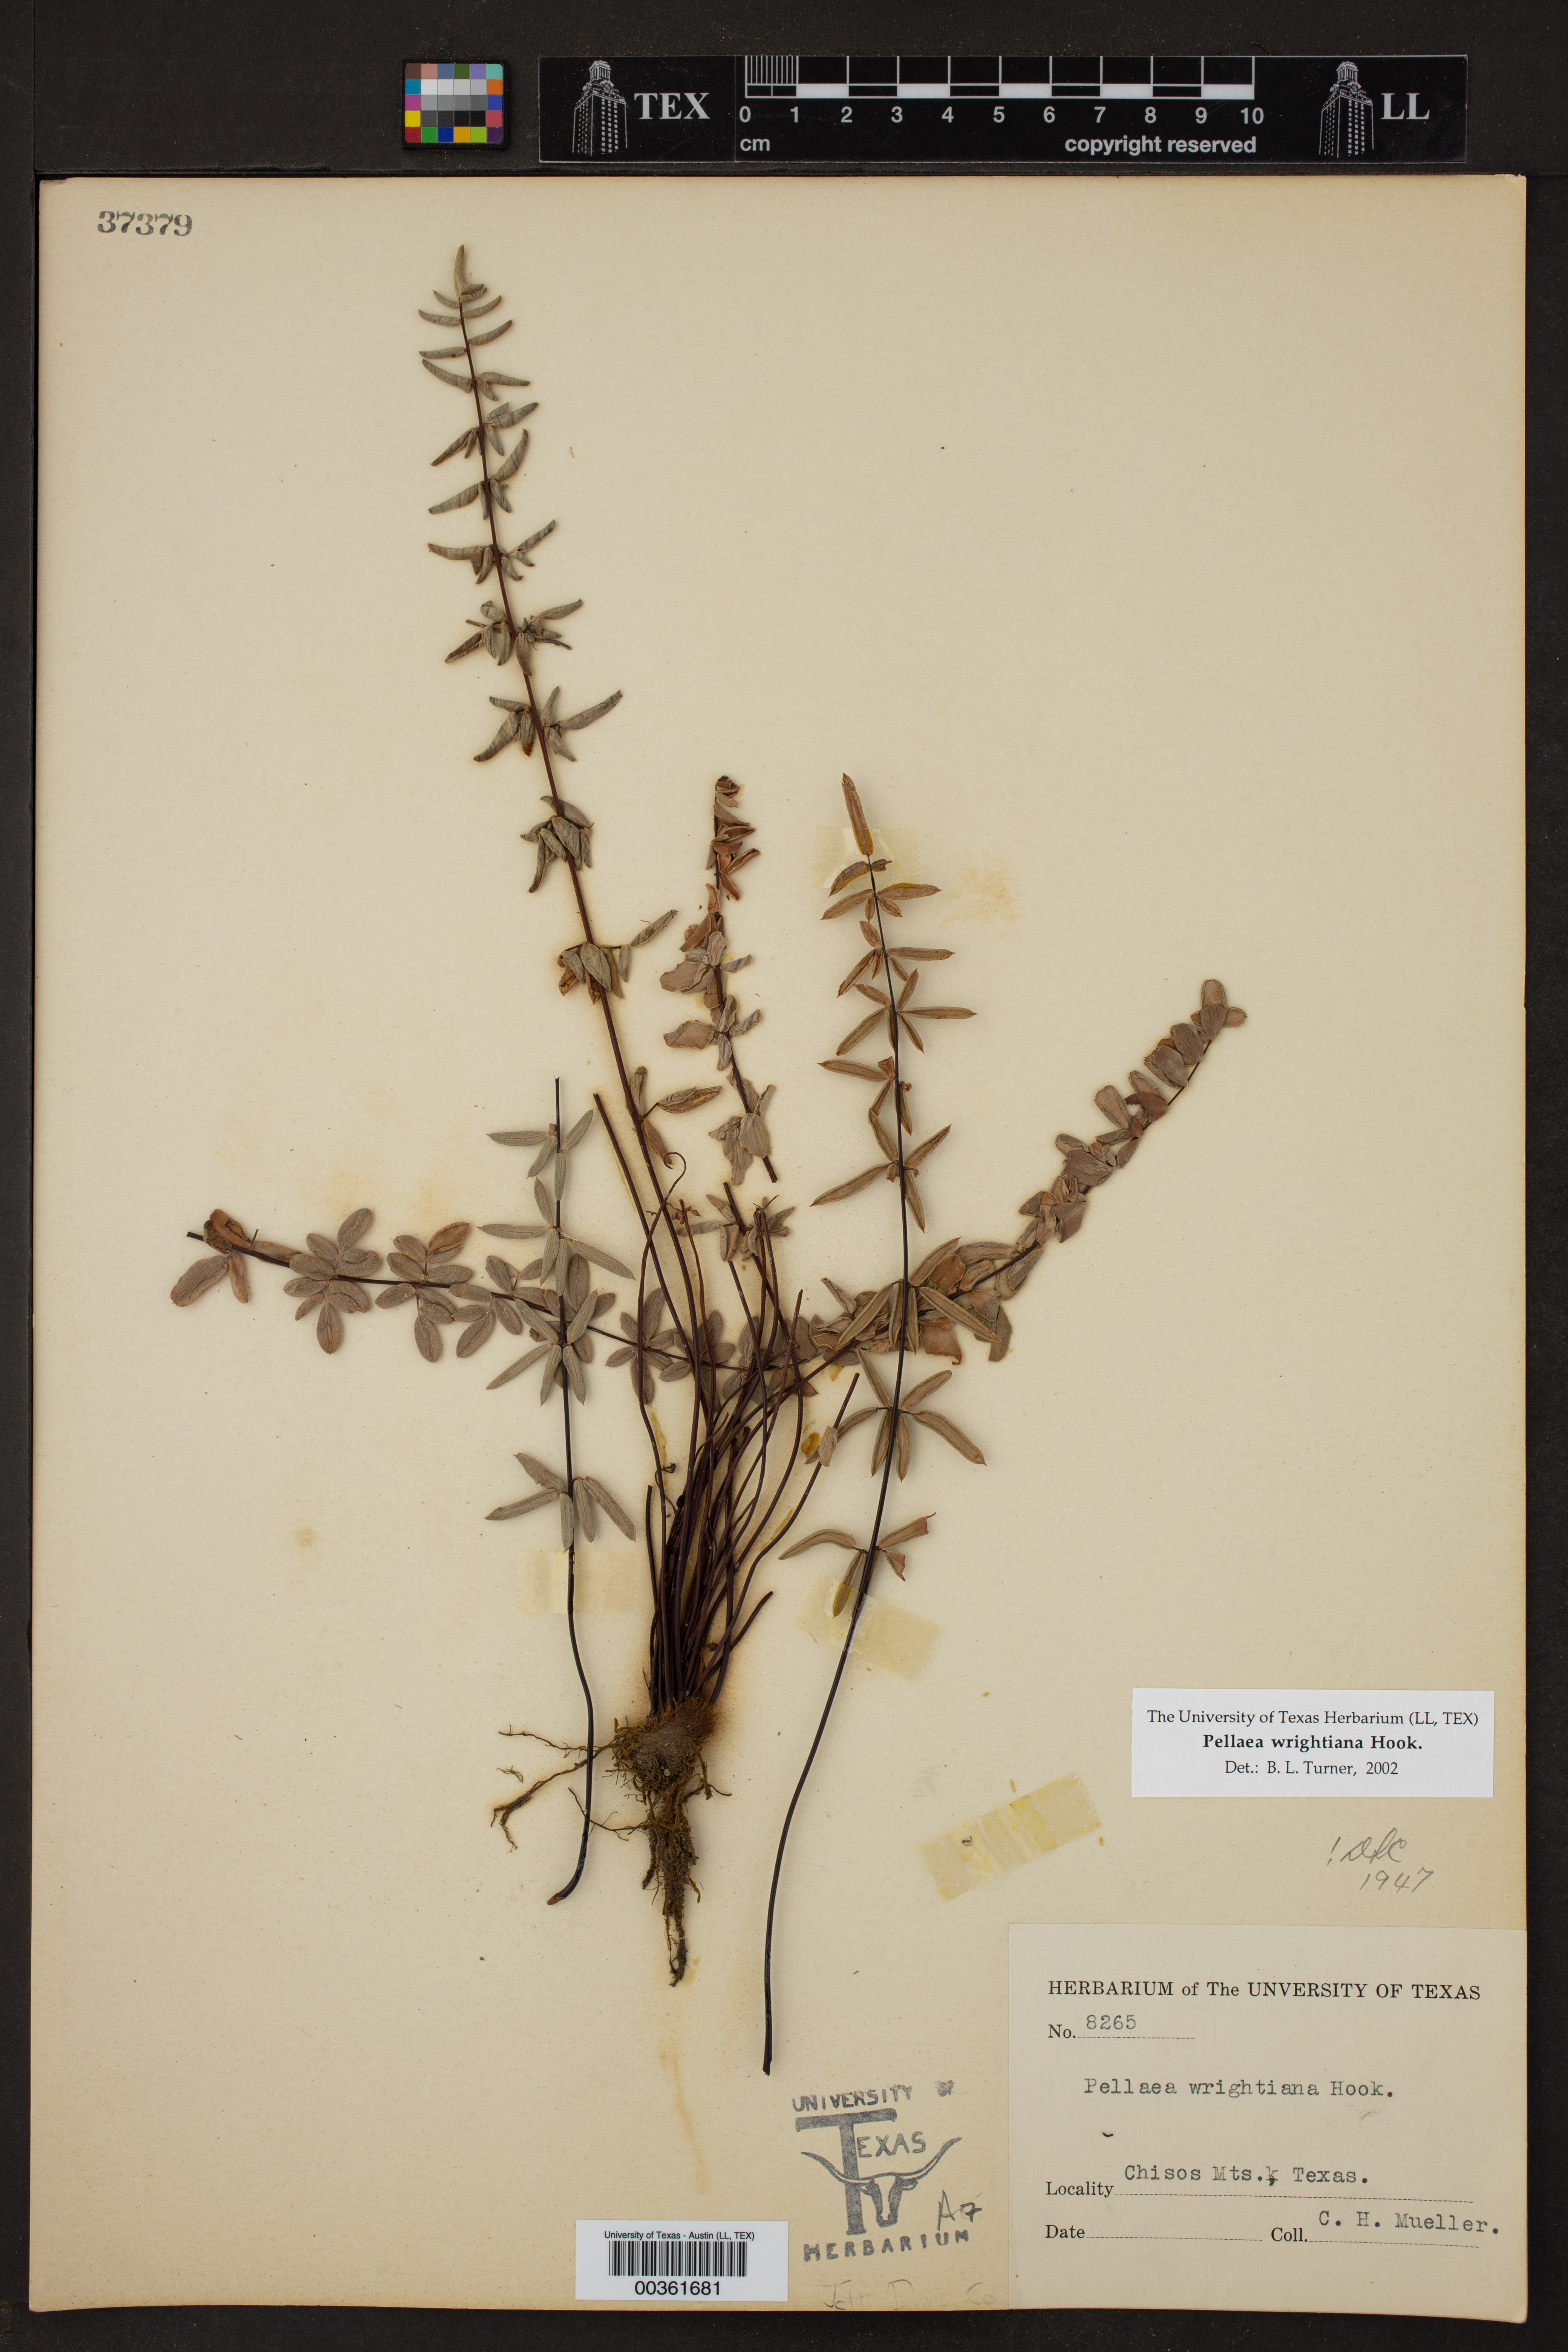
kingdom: Plantae
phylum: Tracheophyta
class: Polypodiopsida
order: Polypodiales
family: Pteridaceae
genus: Pellaea
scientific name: Pellaea wrightiana
